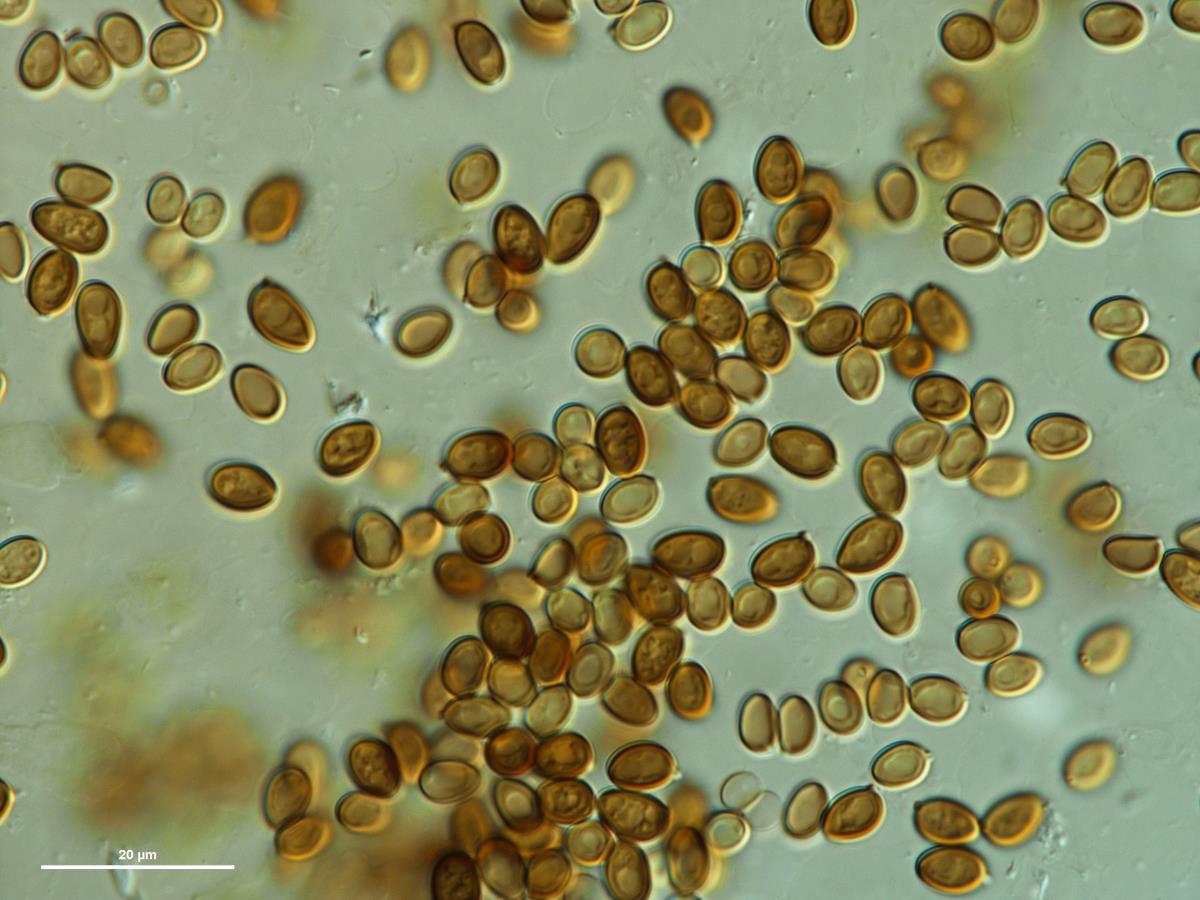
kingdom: Fungi
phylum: Basidiomycota
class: Agaricomycetes
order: Agaricales
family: Agaricaceae
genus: Agaricus
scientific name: Agaricus
